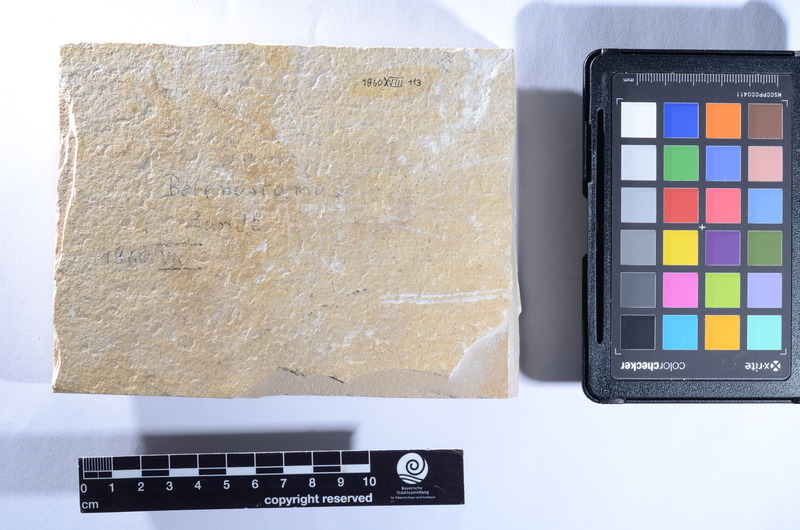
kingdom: Animalia
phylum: Chordata
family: Aspidorhynchidae
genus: Belonostomus
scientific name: Belonostomus
